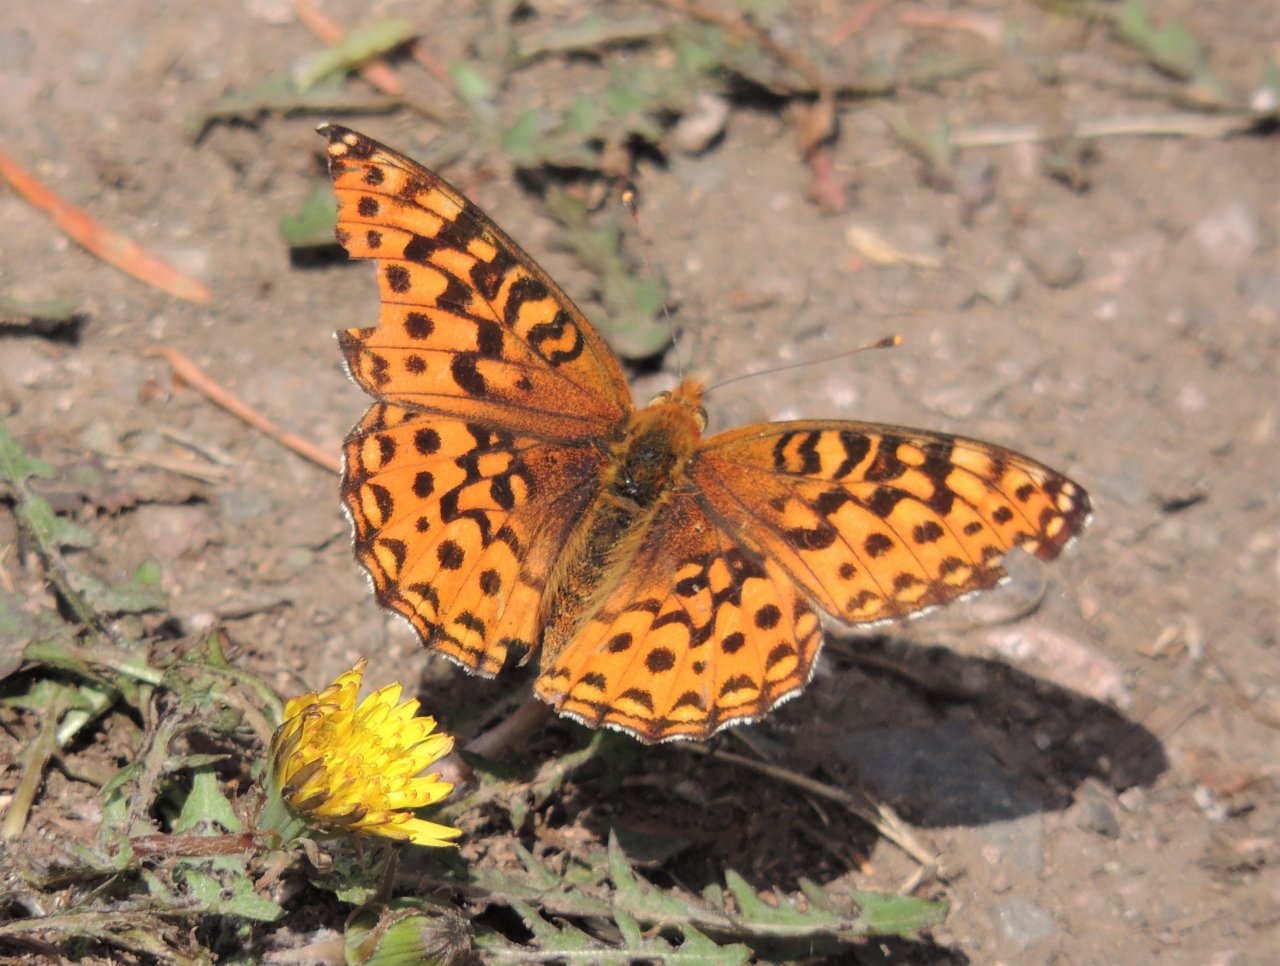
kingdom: Animalia
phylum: Arthropoda
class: Insecta
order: Lepidoptera
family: Nymphalidae
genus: Speyeria
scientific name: Speyeria hydaspe
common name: Hydaspe Fritillary
